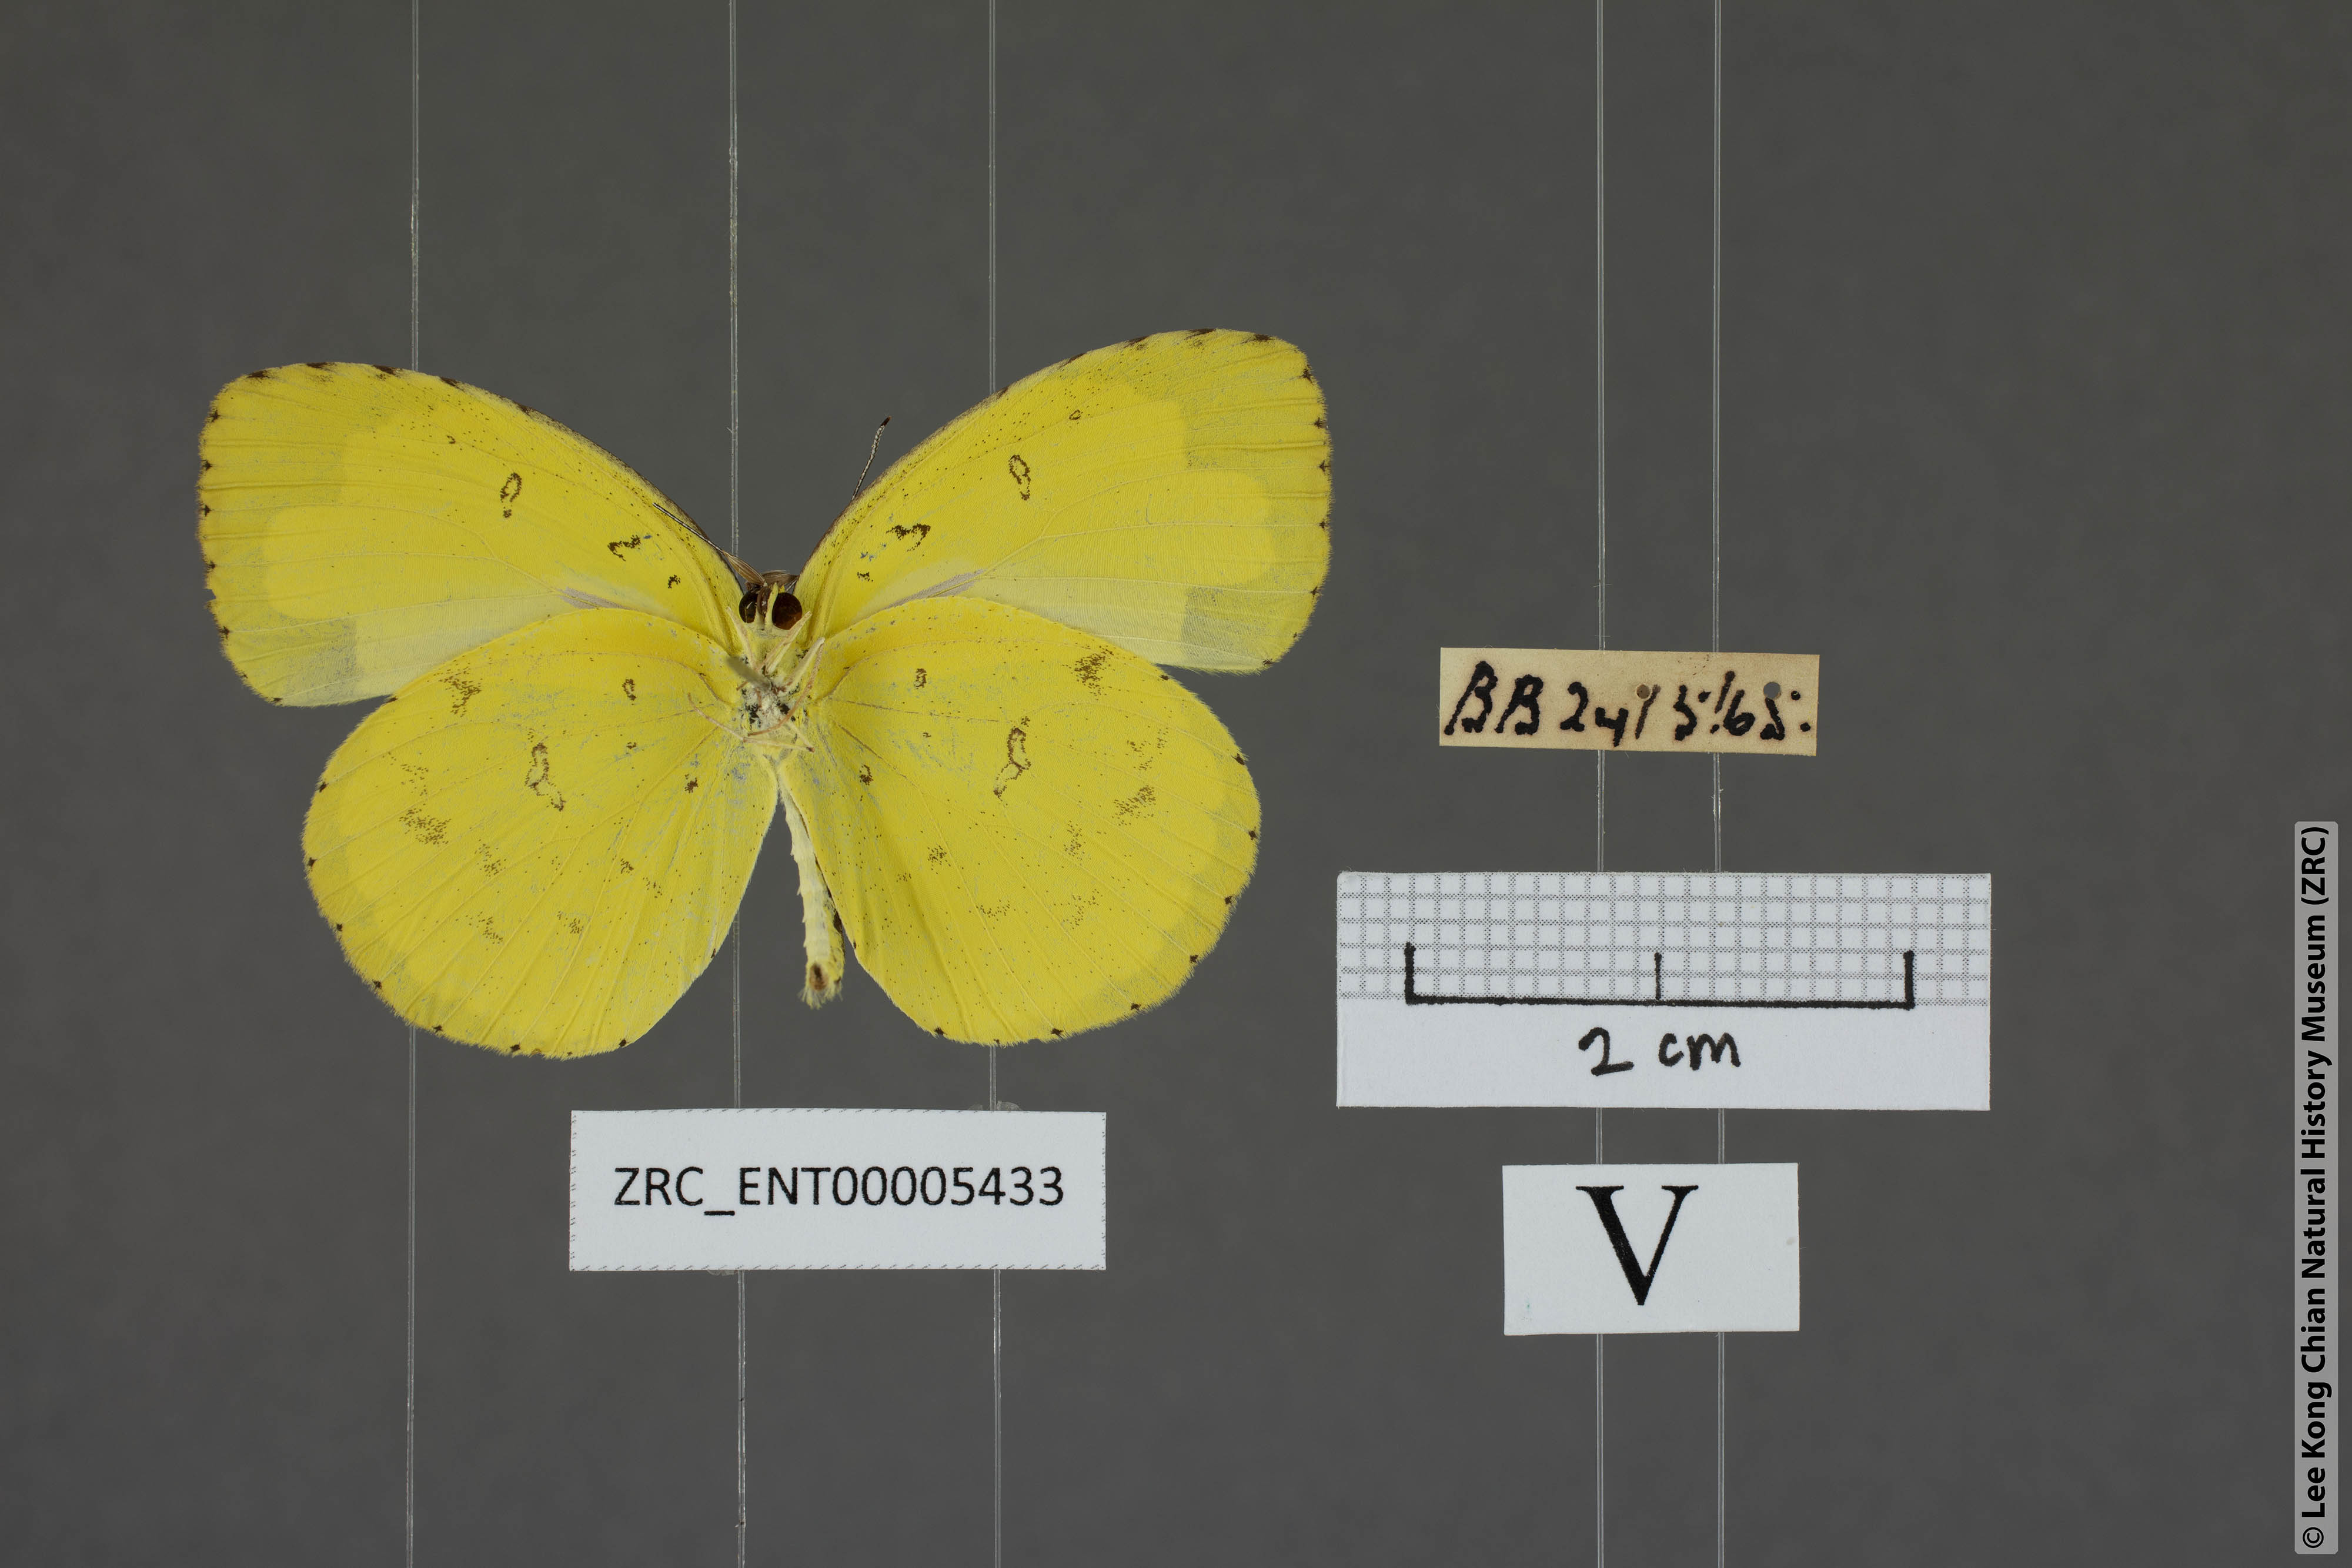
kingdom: Animalia
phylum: Arthropoda
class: Insecta
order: Lepidoptera
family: Pieridae
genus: Eurema
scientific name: Eurema blanda
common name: Three-spot grass yellow
